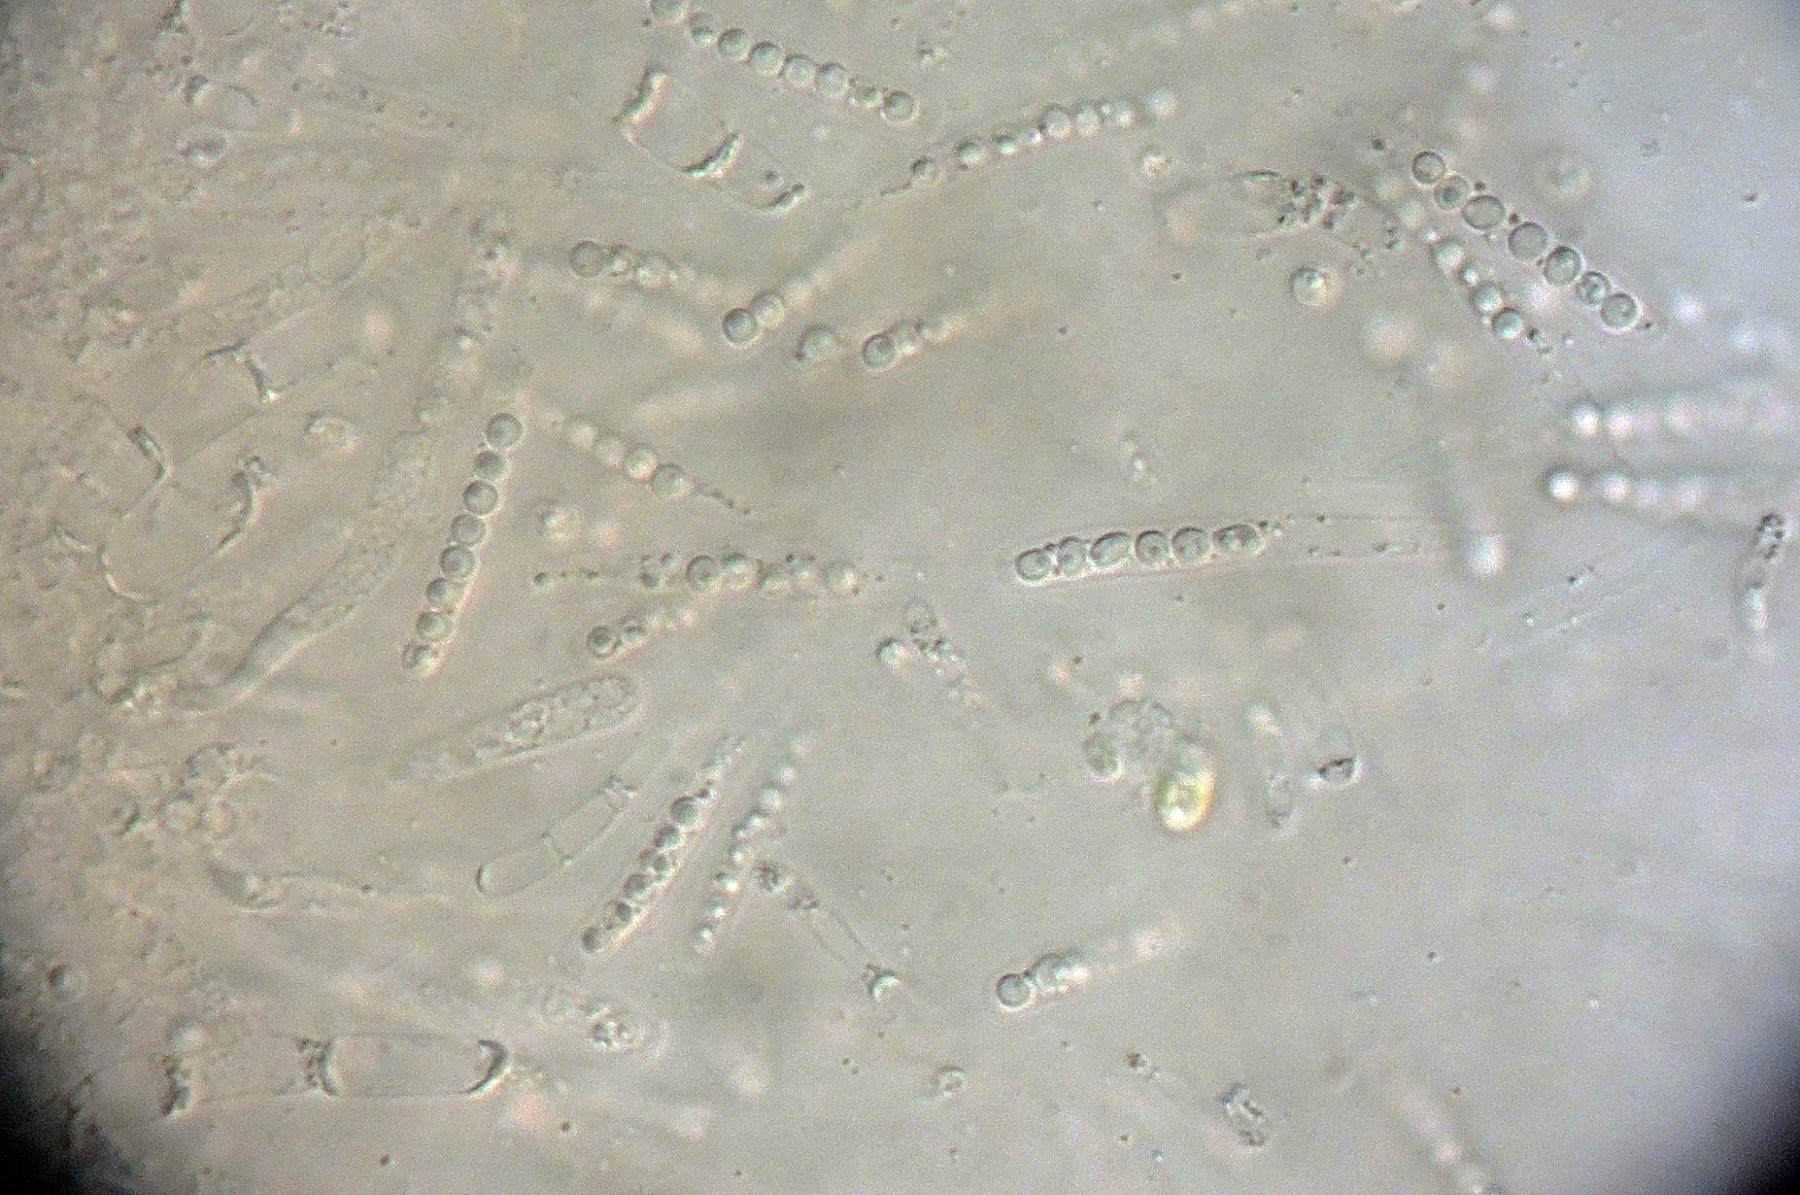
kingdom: Fungi
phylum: Ascomycota
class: Sordariomycetes
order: Amplistromatales
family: Amplistromataceae
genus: Wallrothiella
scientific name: Wallrothiella congregata
